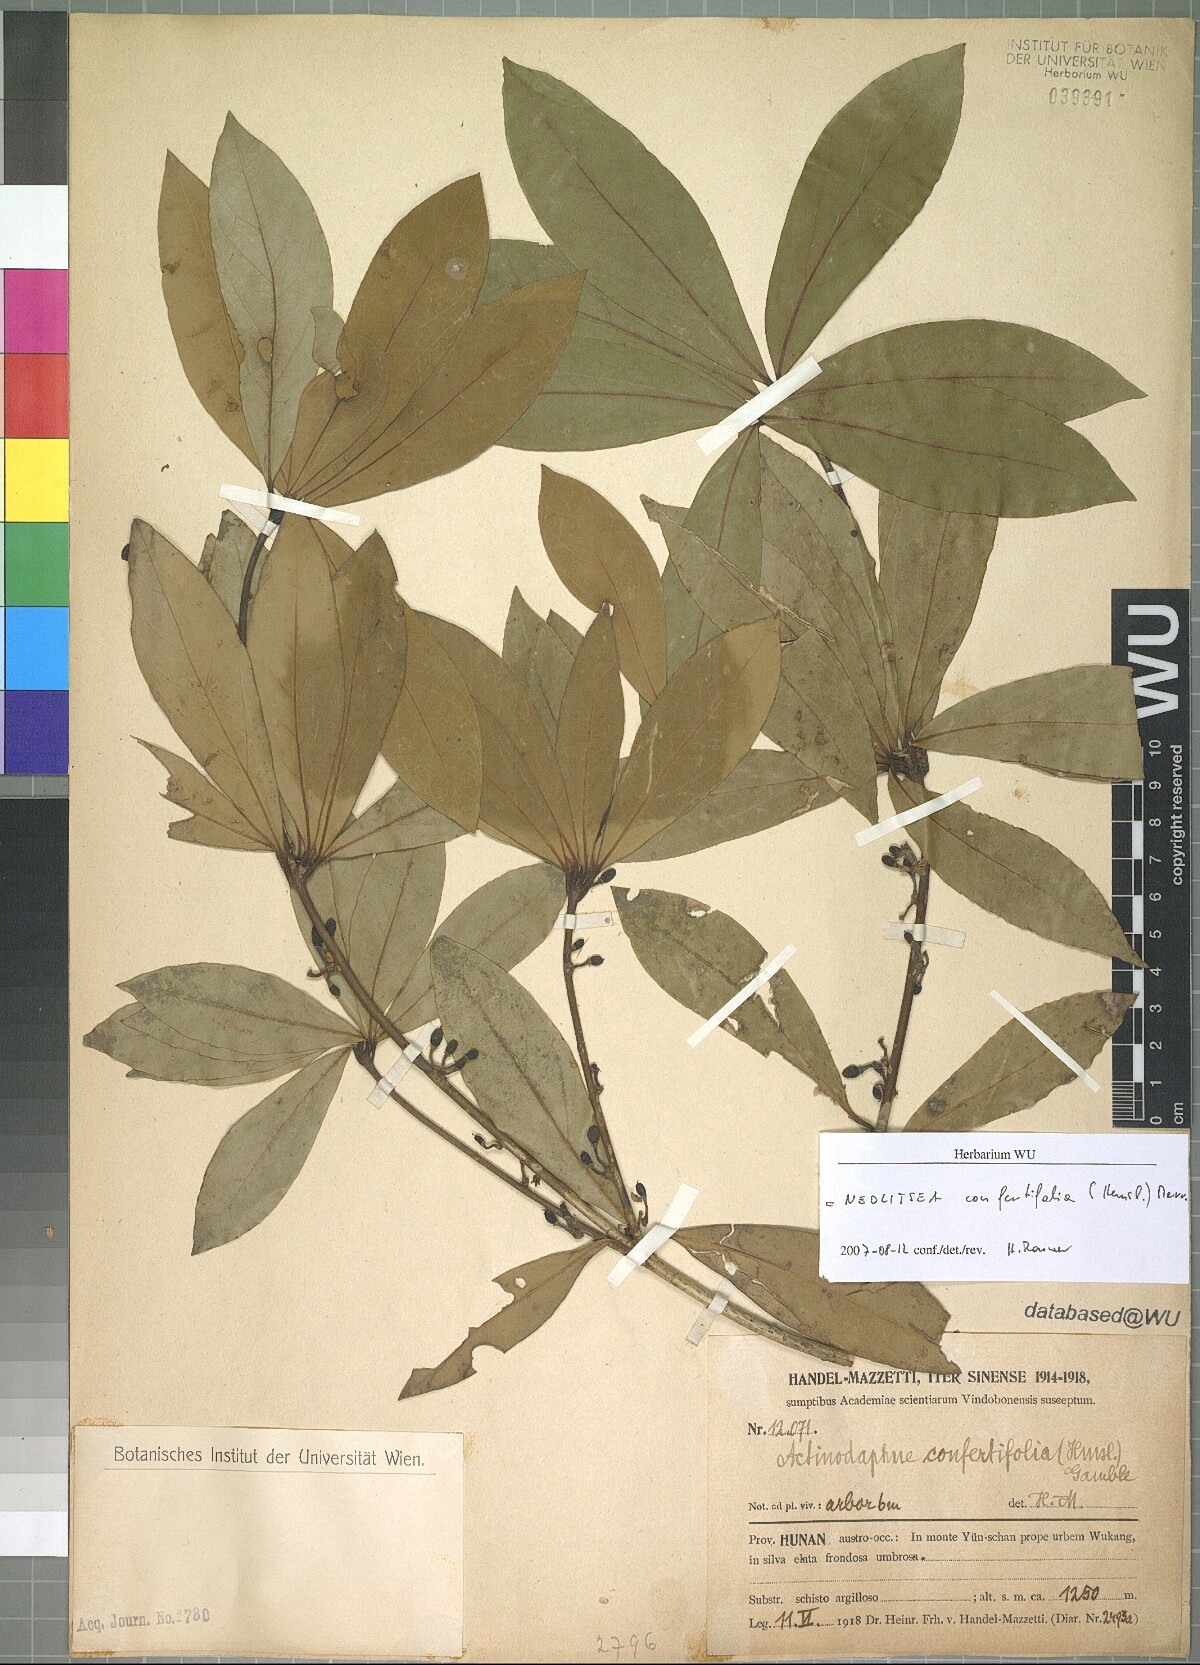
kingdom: Plantae
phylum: Tracheophyta
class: Magnoliopsida
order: Laurales
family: Lauraceae
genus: Neolitsea
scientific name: Neolitsea confertifolia
